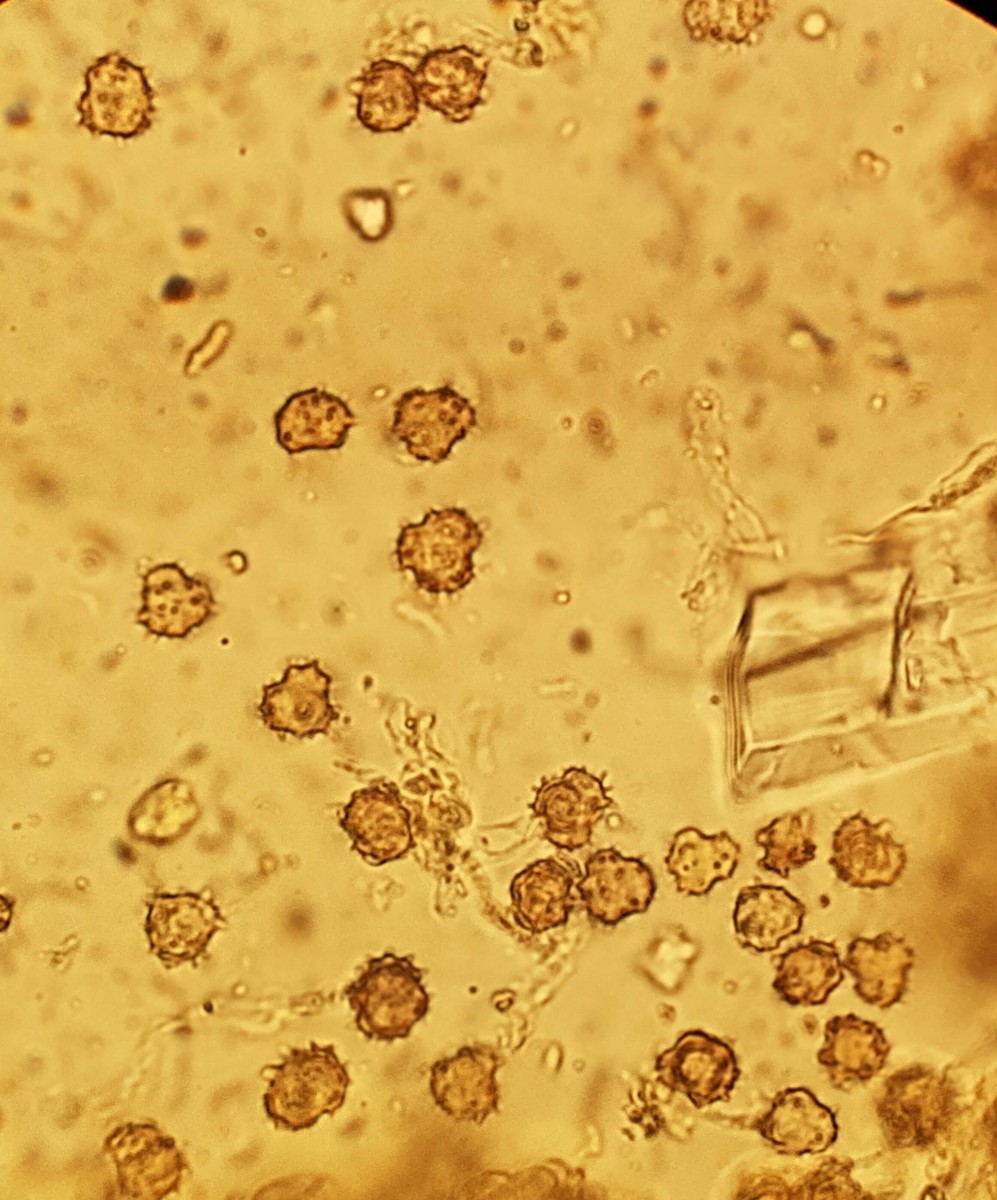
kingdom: Fungi
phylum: Basidiomycota
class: Agaricomycetes
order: Thelephorales
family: Thelephoraceae
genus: Tomentella
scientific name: Tomentella
